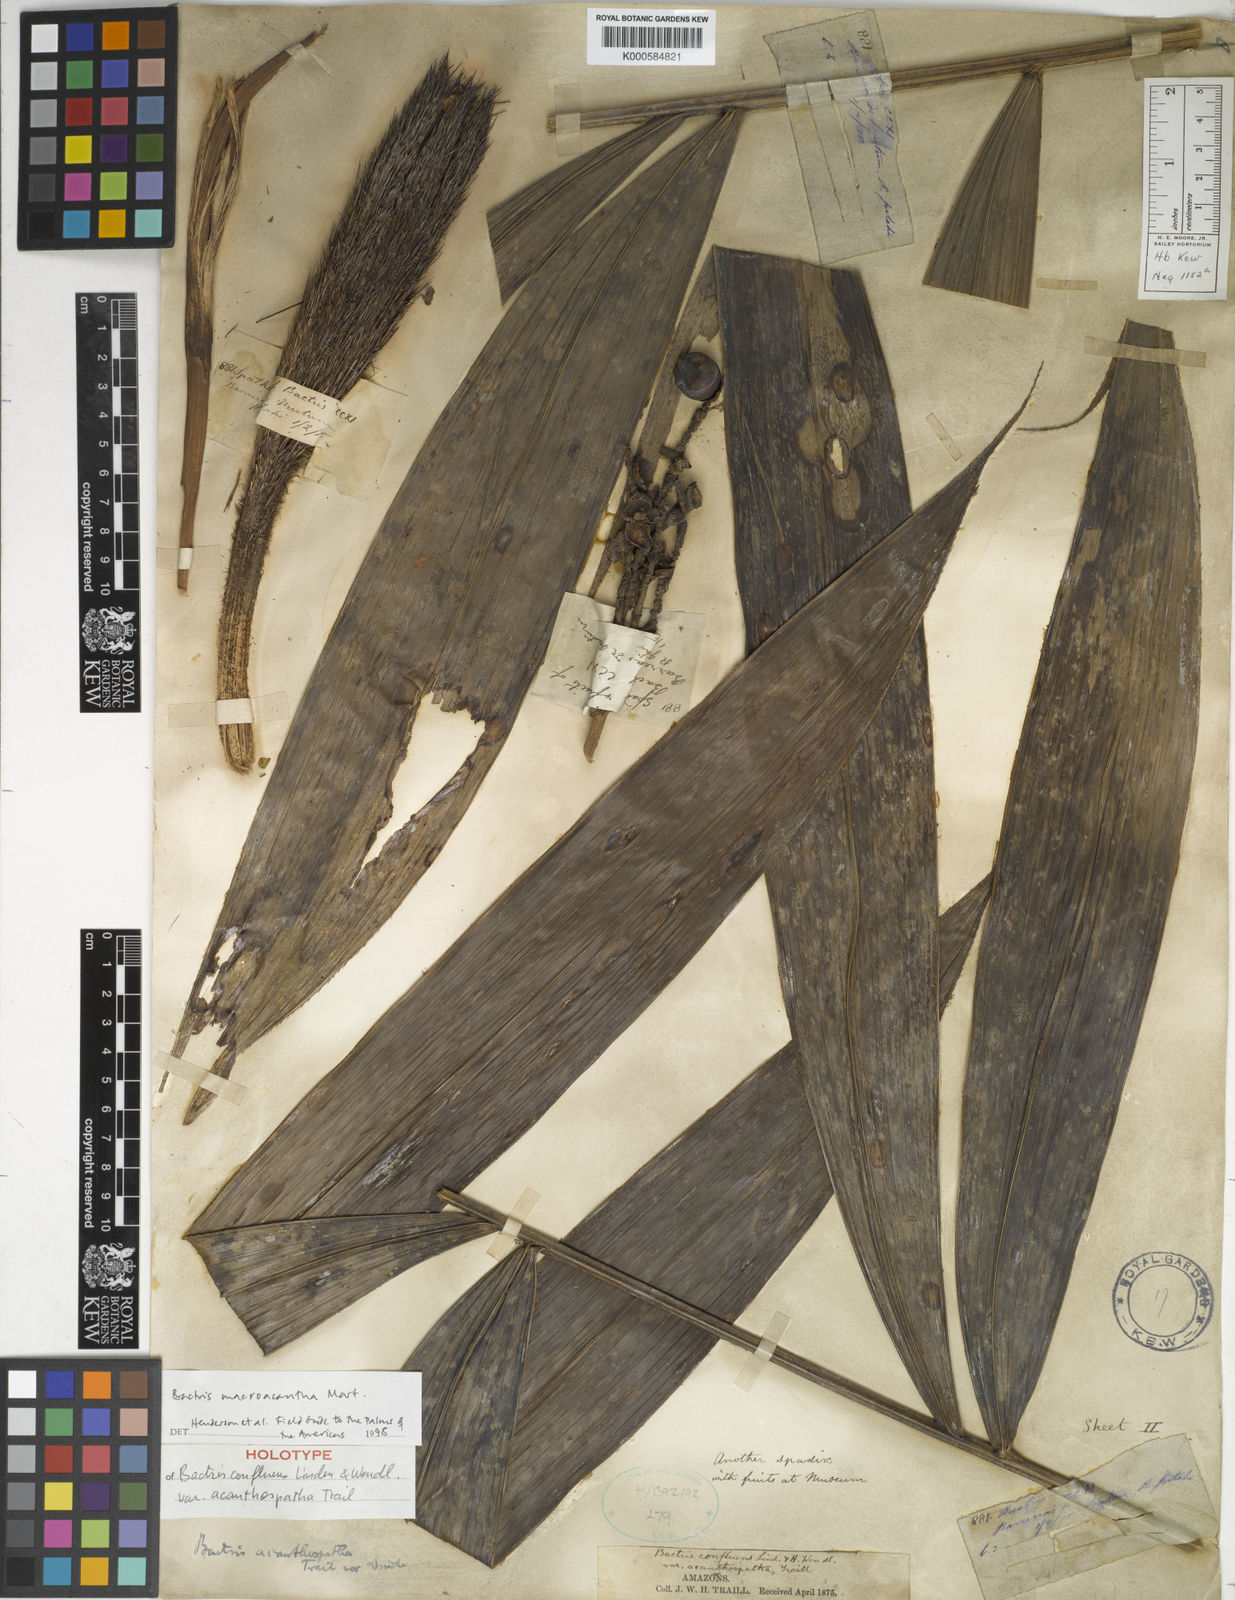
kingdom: Plantae
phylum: Tracheophyta
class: Liliopsida
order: Arecales
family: Arecaceae
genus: Bactris
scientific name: Bactris macroacantha
